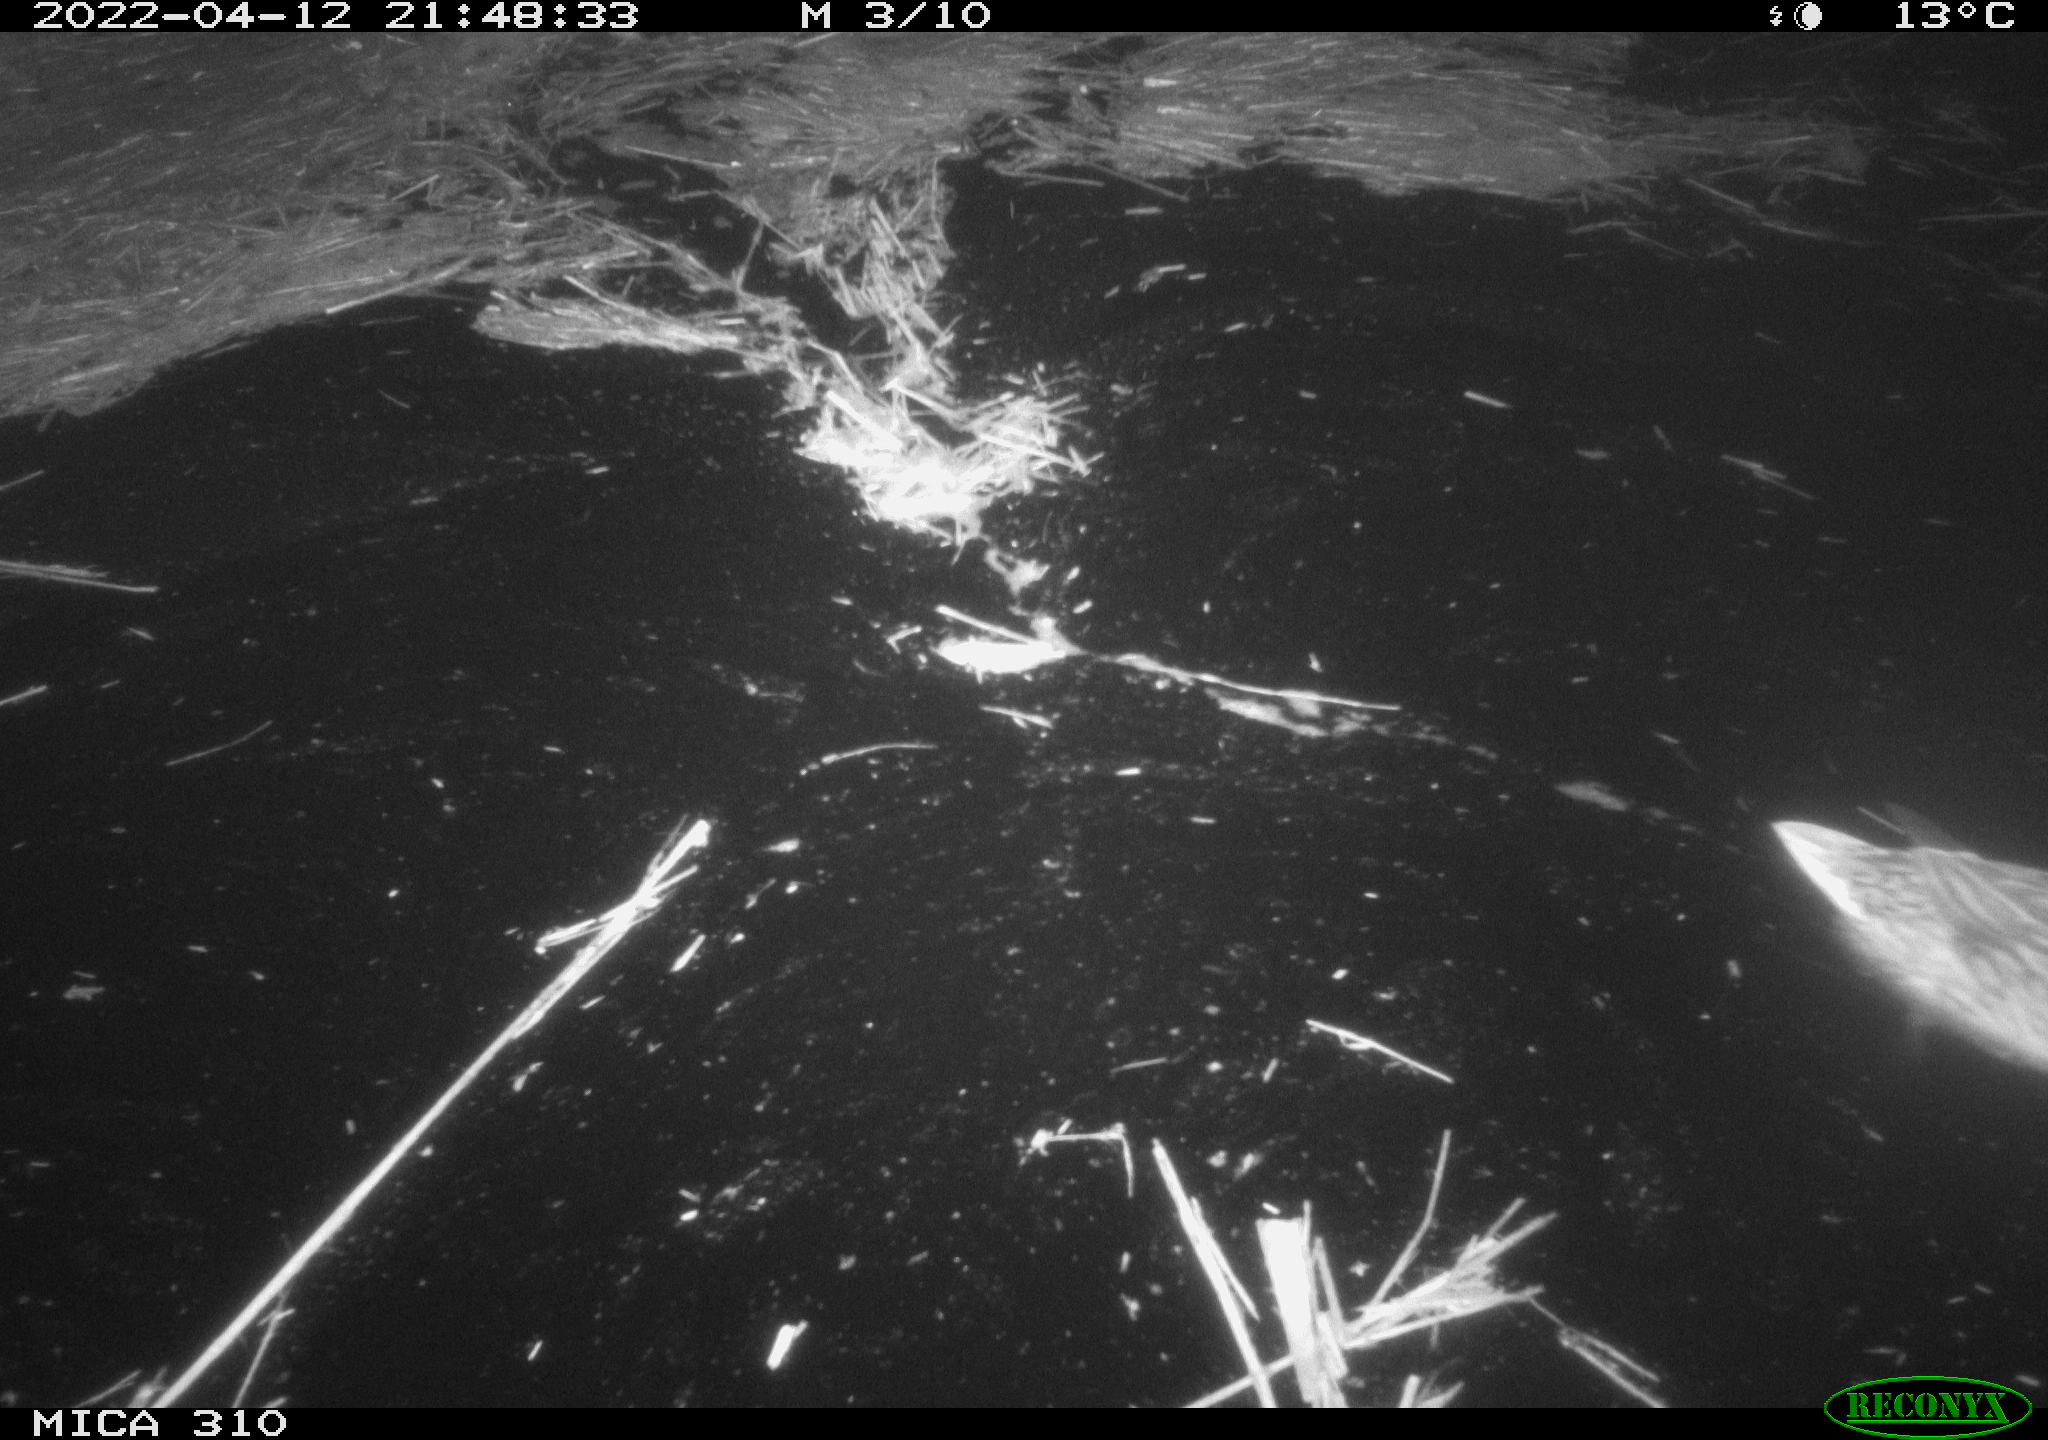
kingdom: Animalia
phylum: Chordata
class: Aves
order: Anseriformes
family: Anatidae
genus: Anas
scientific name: Anas platyrhynchos
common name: Mallard
